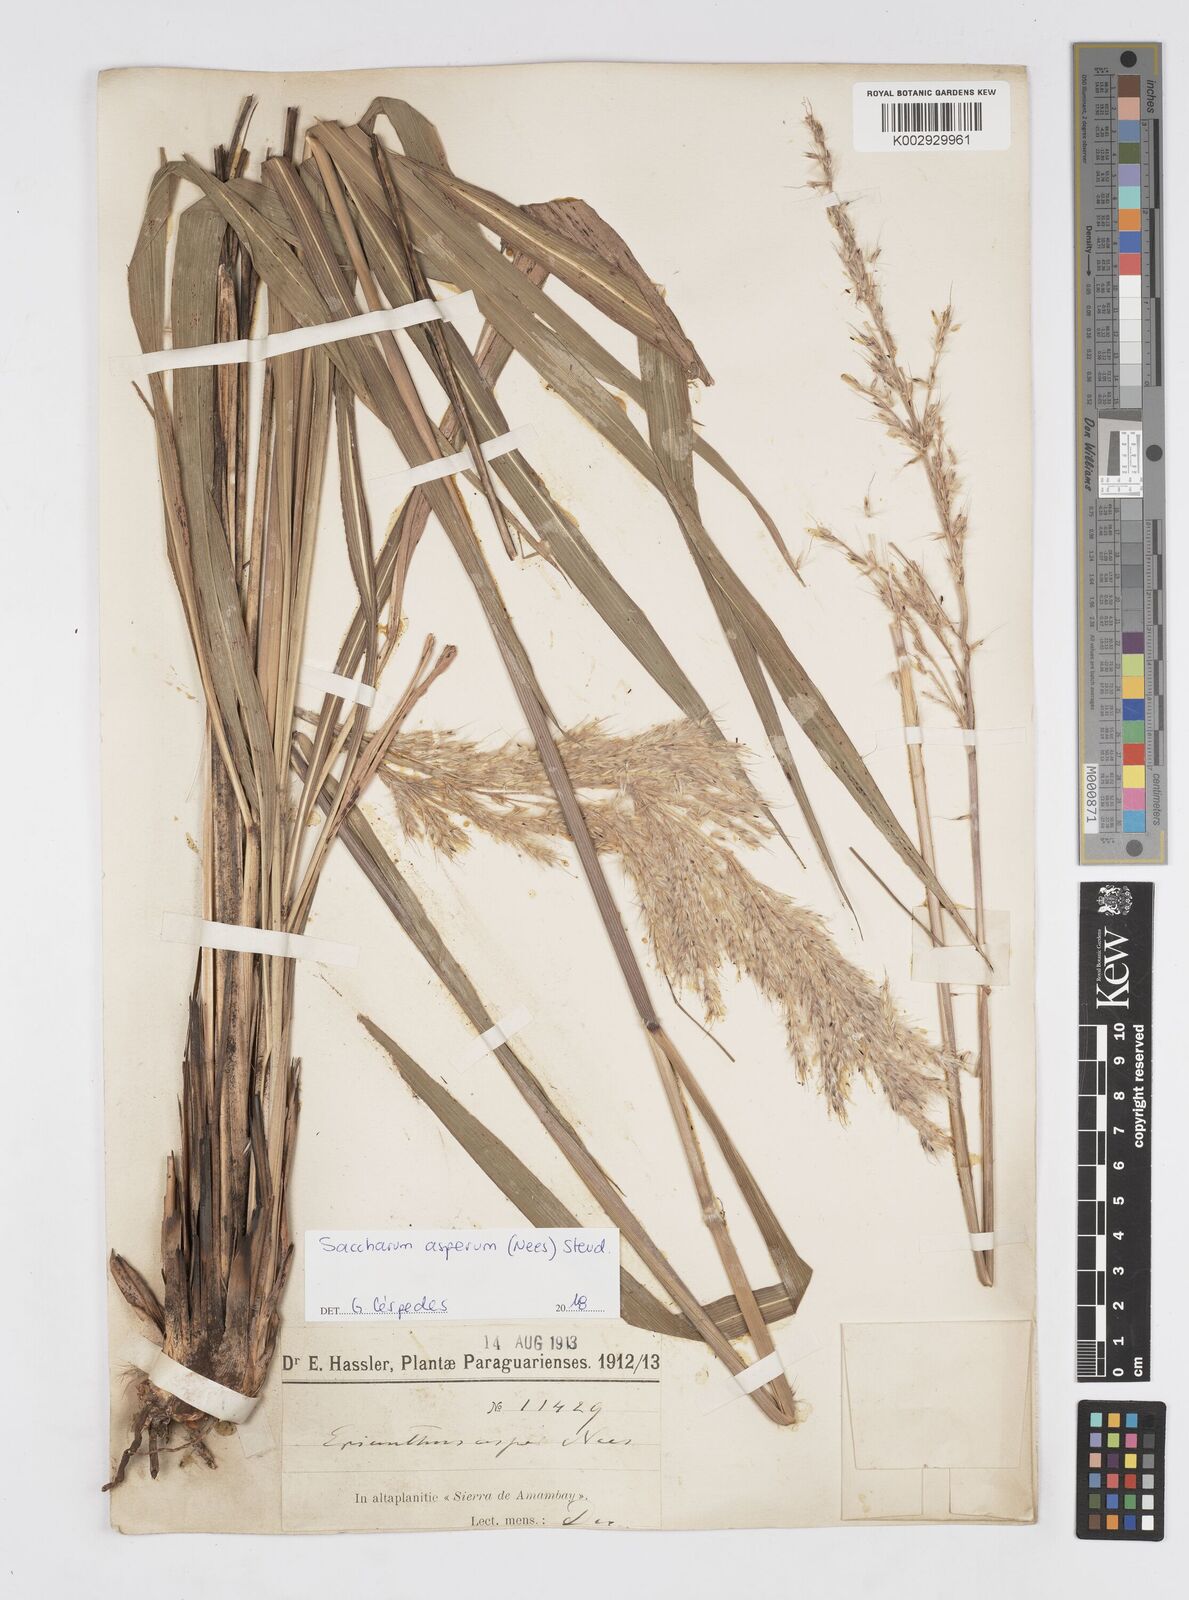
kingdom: Plantae
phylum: Tracheophyta
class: Liliopsida
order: Poales
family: Poaceae
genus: Erianthus
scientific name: Erianthus asper
